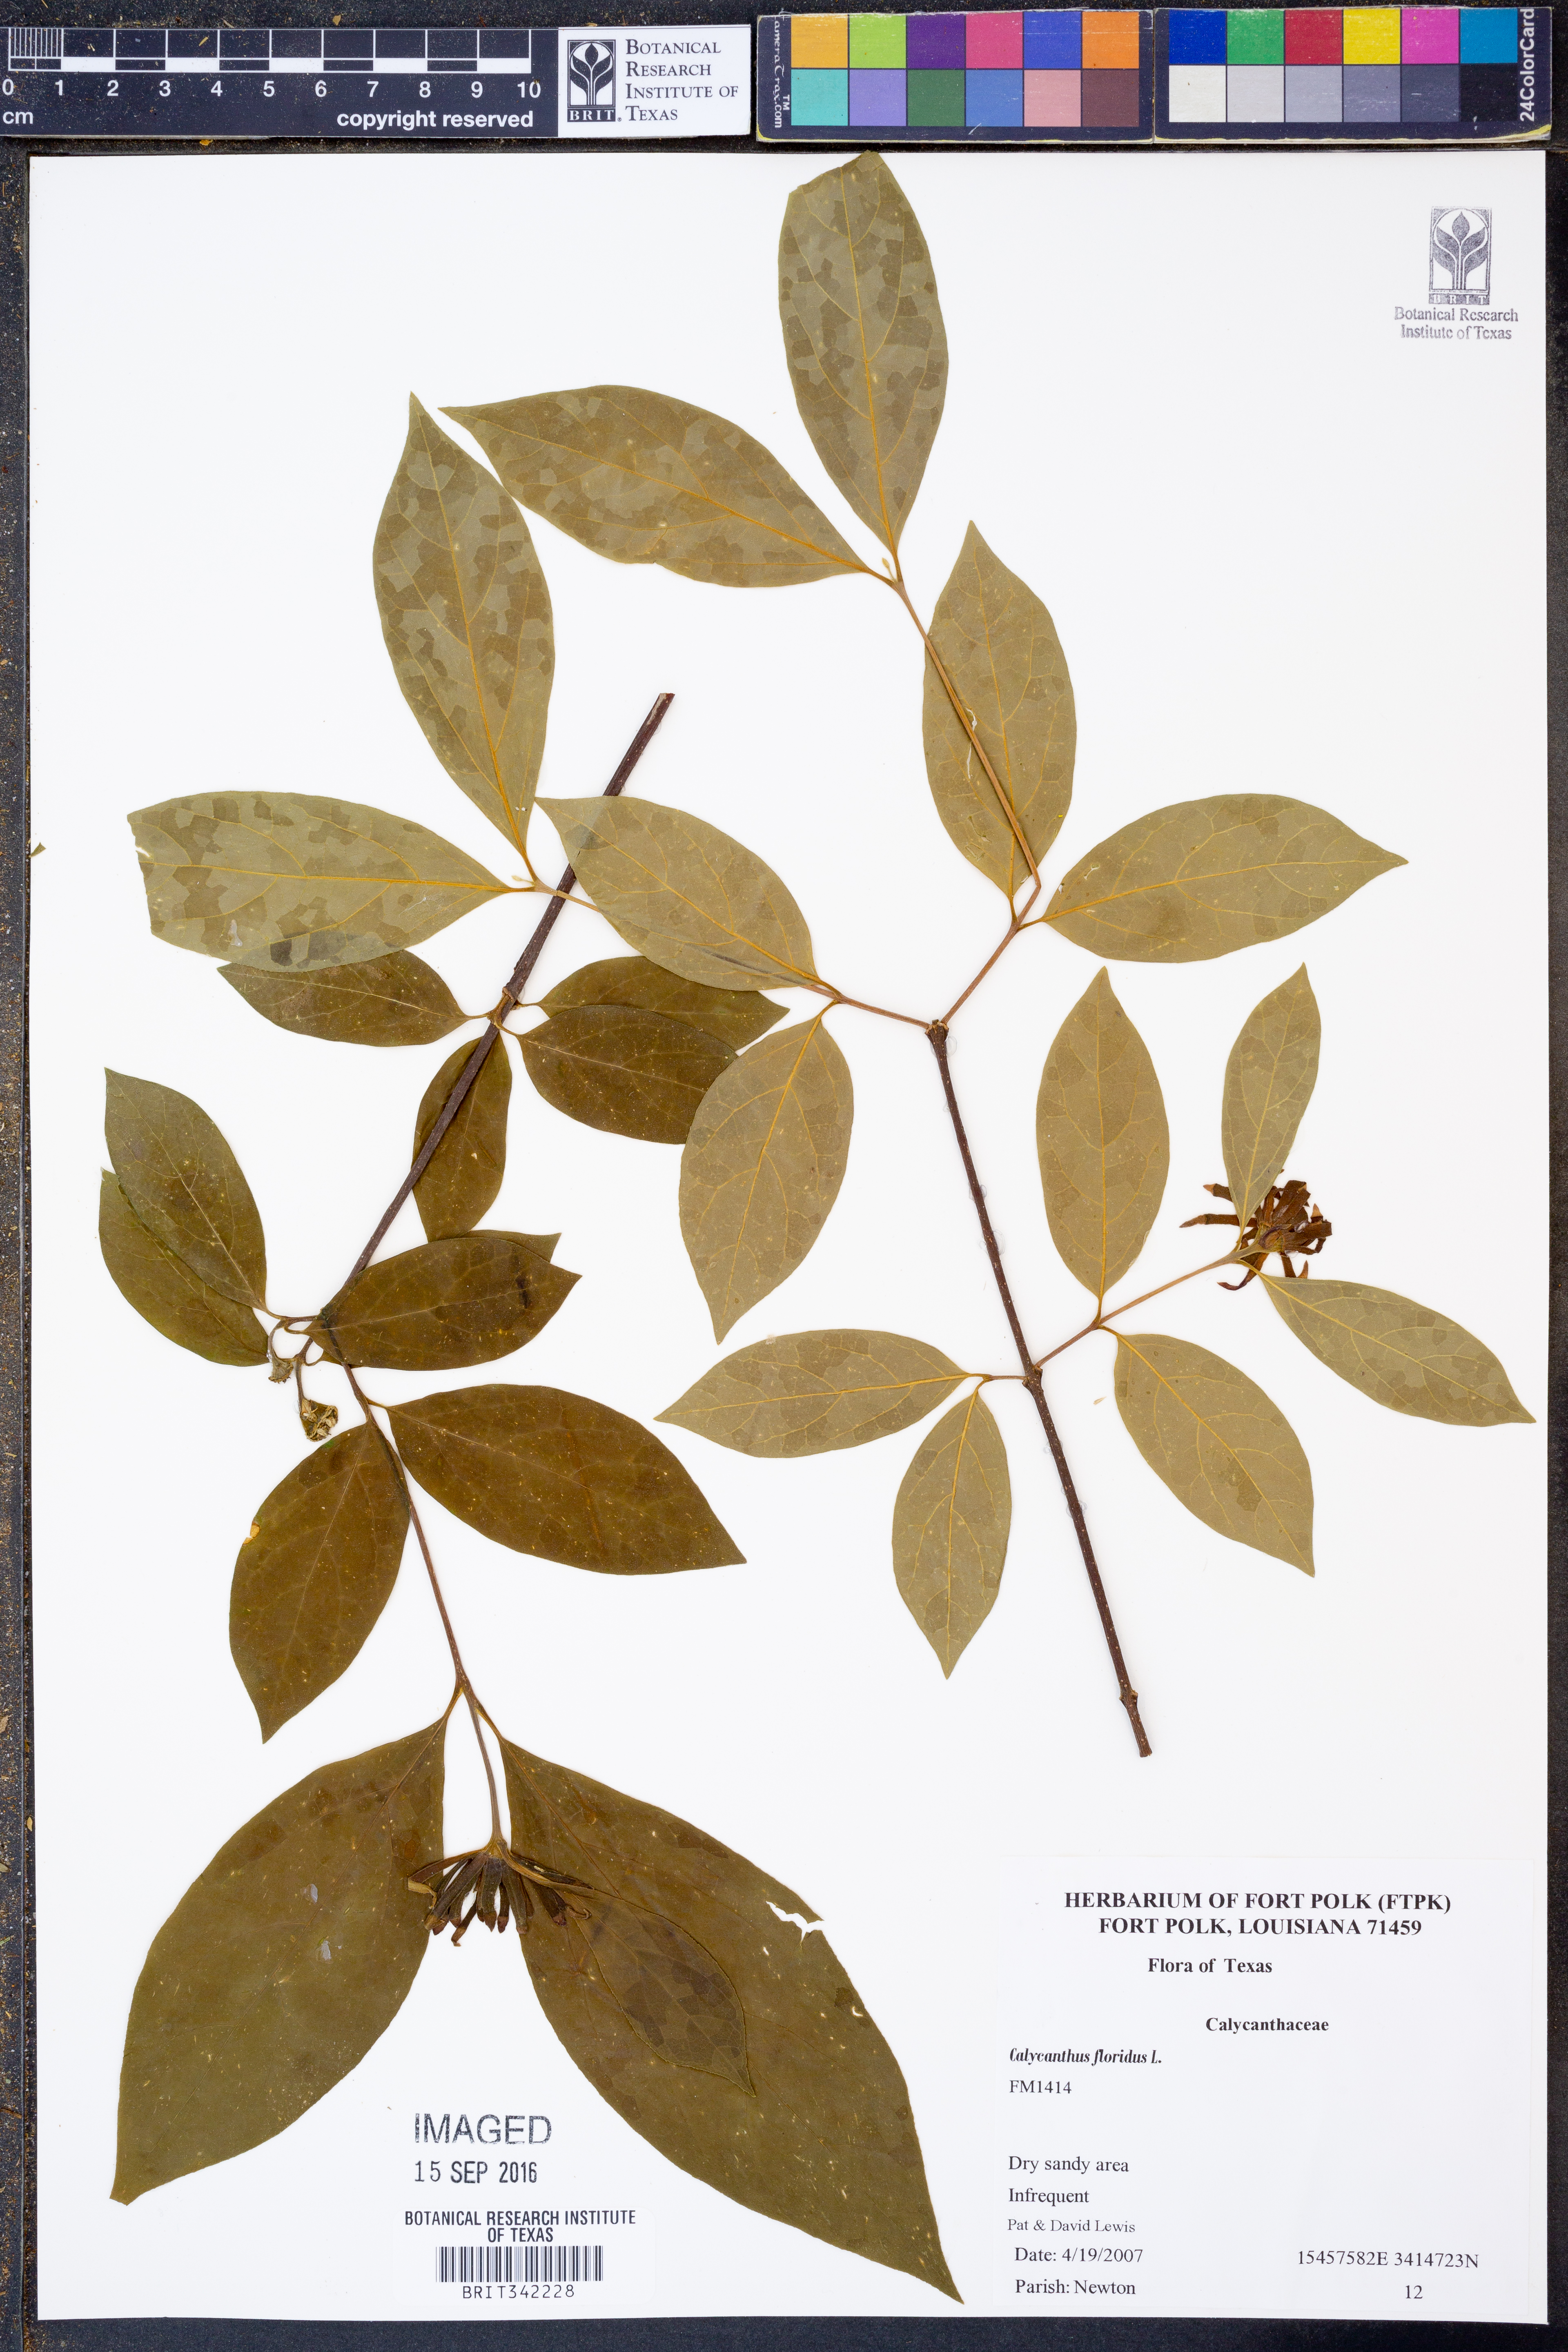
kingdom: Plantae
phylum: Tracheophyta
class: Magnoliopsida
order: Laurales
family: Calycanthaceae
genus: Calycanthus
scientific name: Calycanthus floridus
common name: Carolina-allspice
